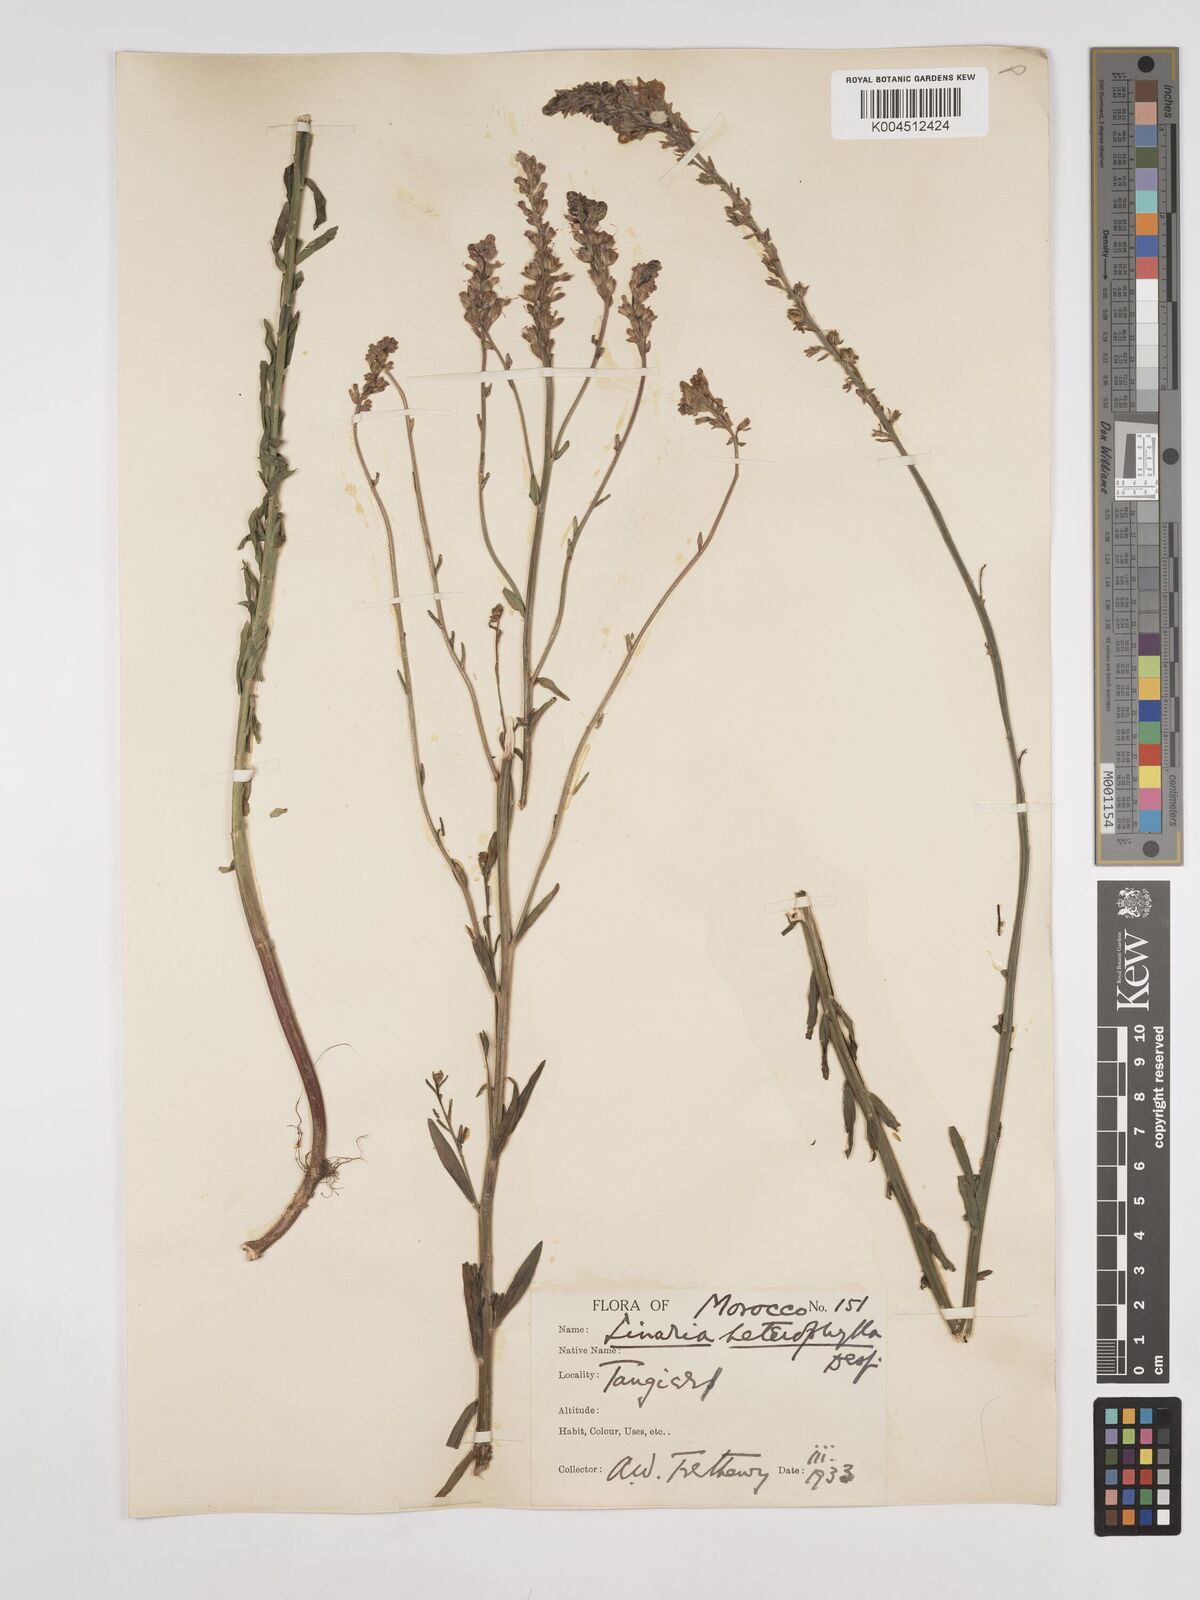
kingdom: Plantae
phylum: Tracheophyta
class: Magnoliopsida
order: Lamiales
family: Plantaginaceae
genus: Linaria
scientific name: Linaria multicaulis
